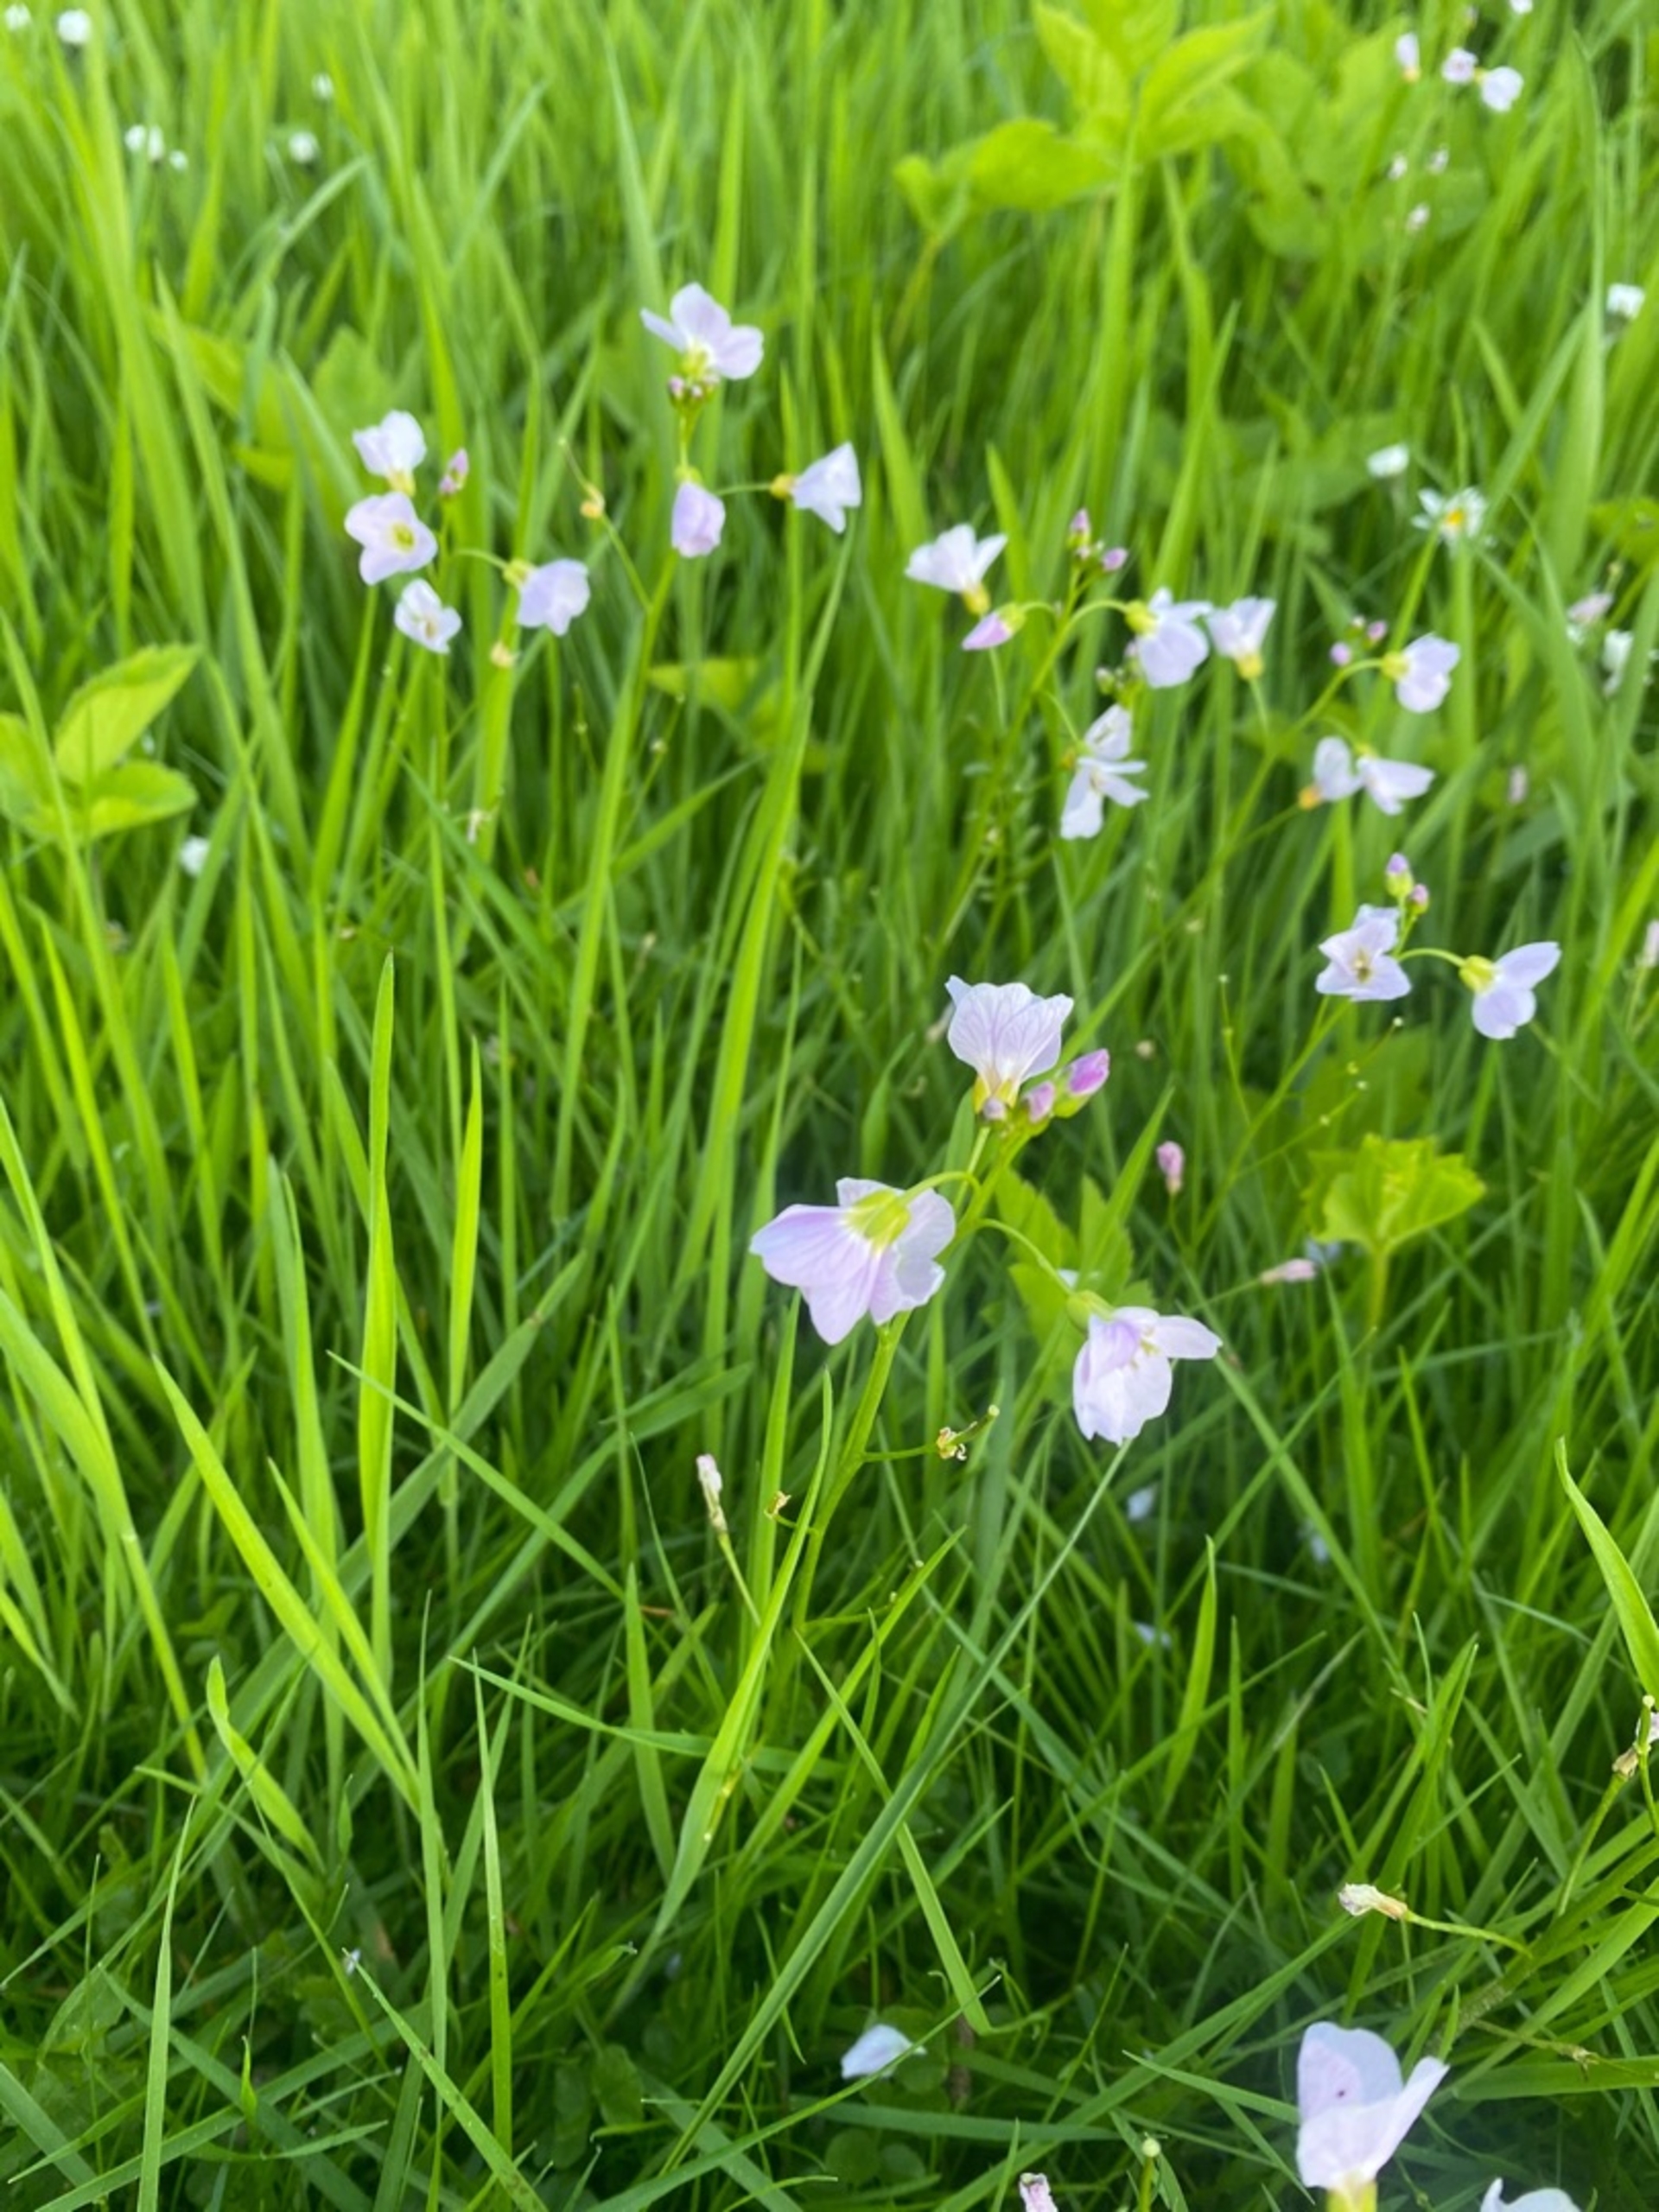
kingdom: Plantae
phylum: Tracheophyta
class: Magnoliopsida
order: Brassicales
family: Brassicaceae
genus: Cardamine
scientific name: Cardamine pratensis
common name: Engkarse
